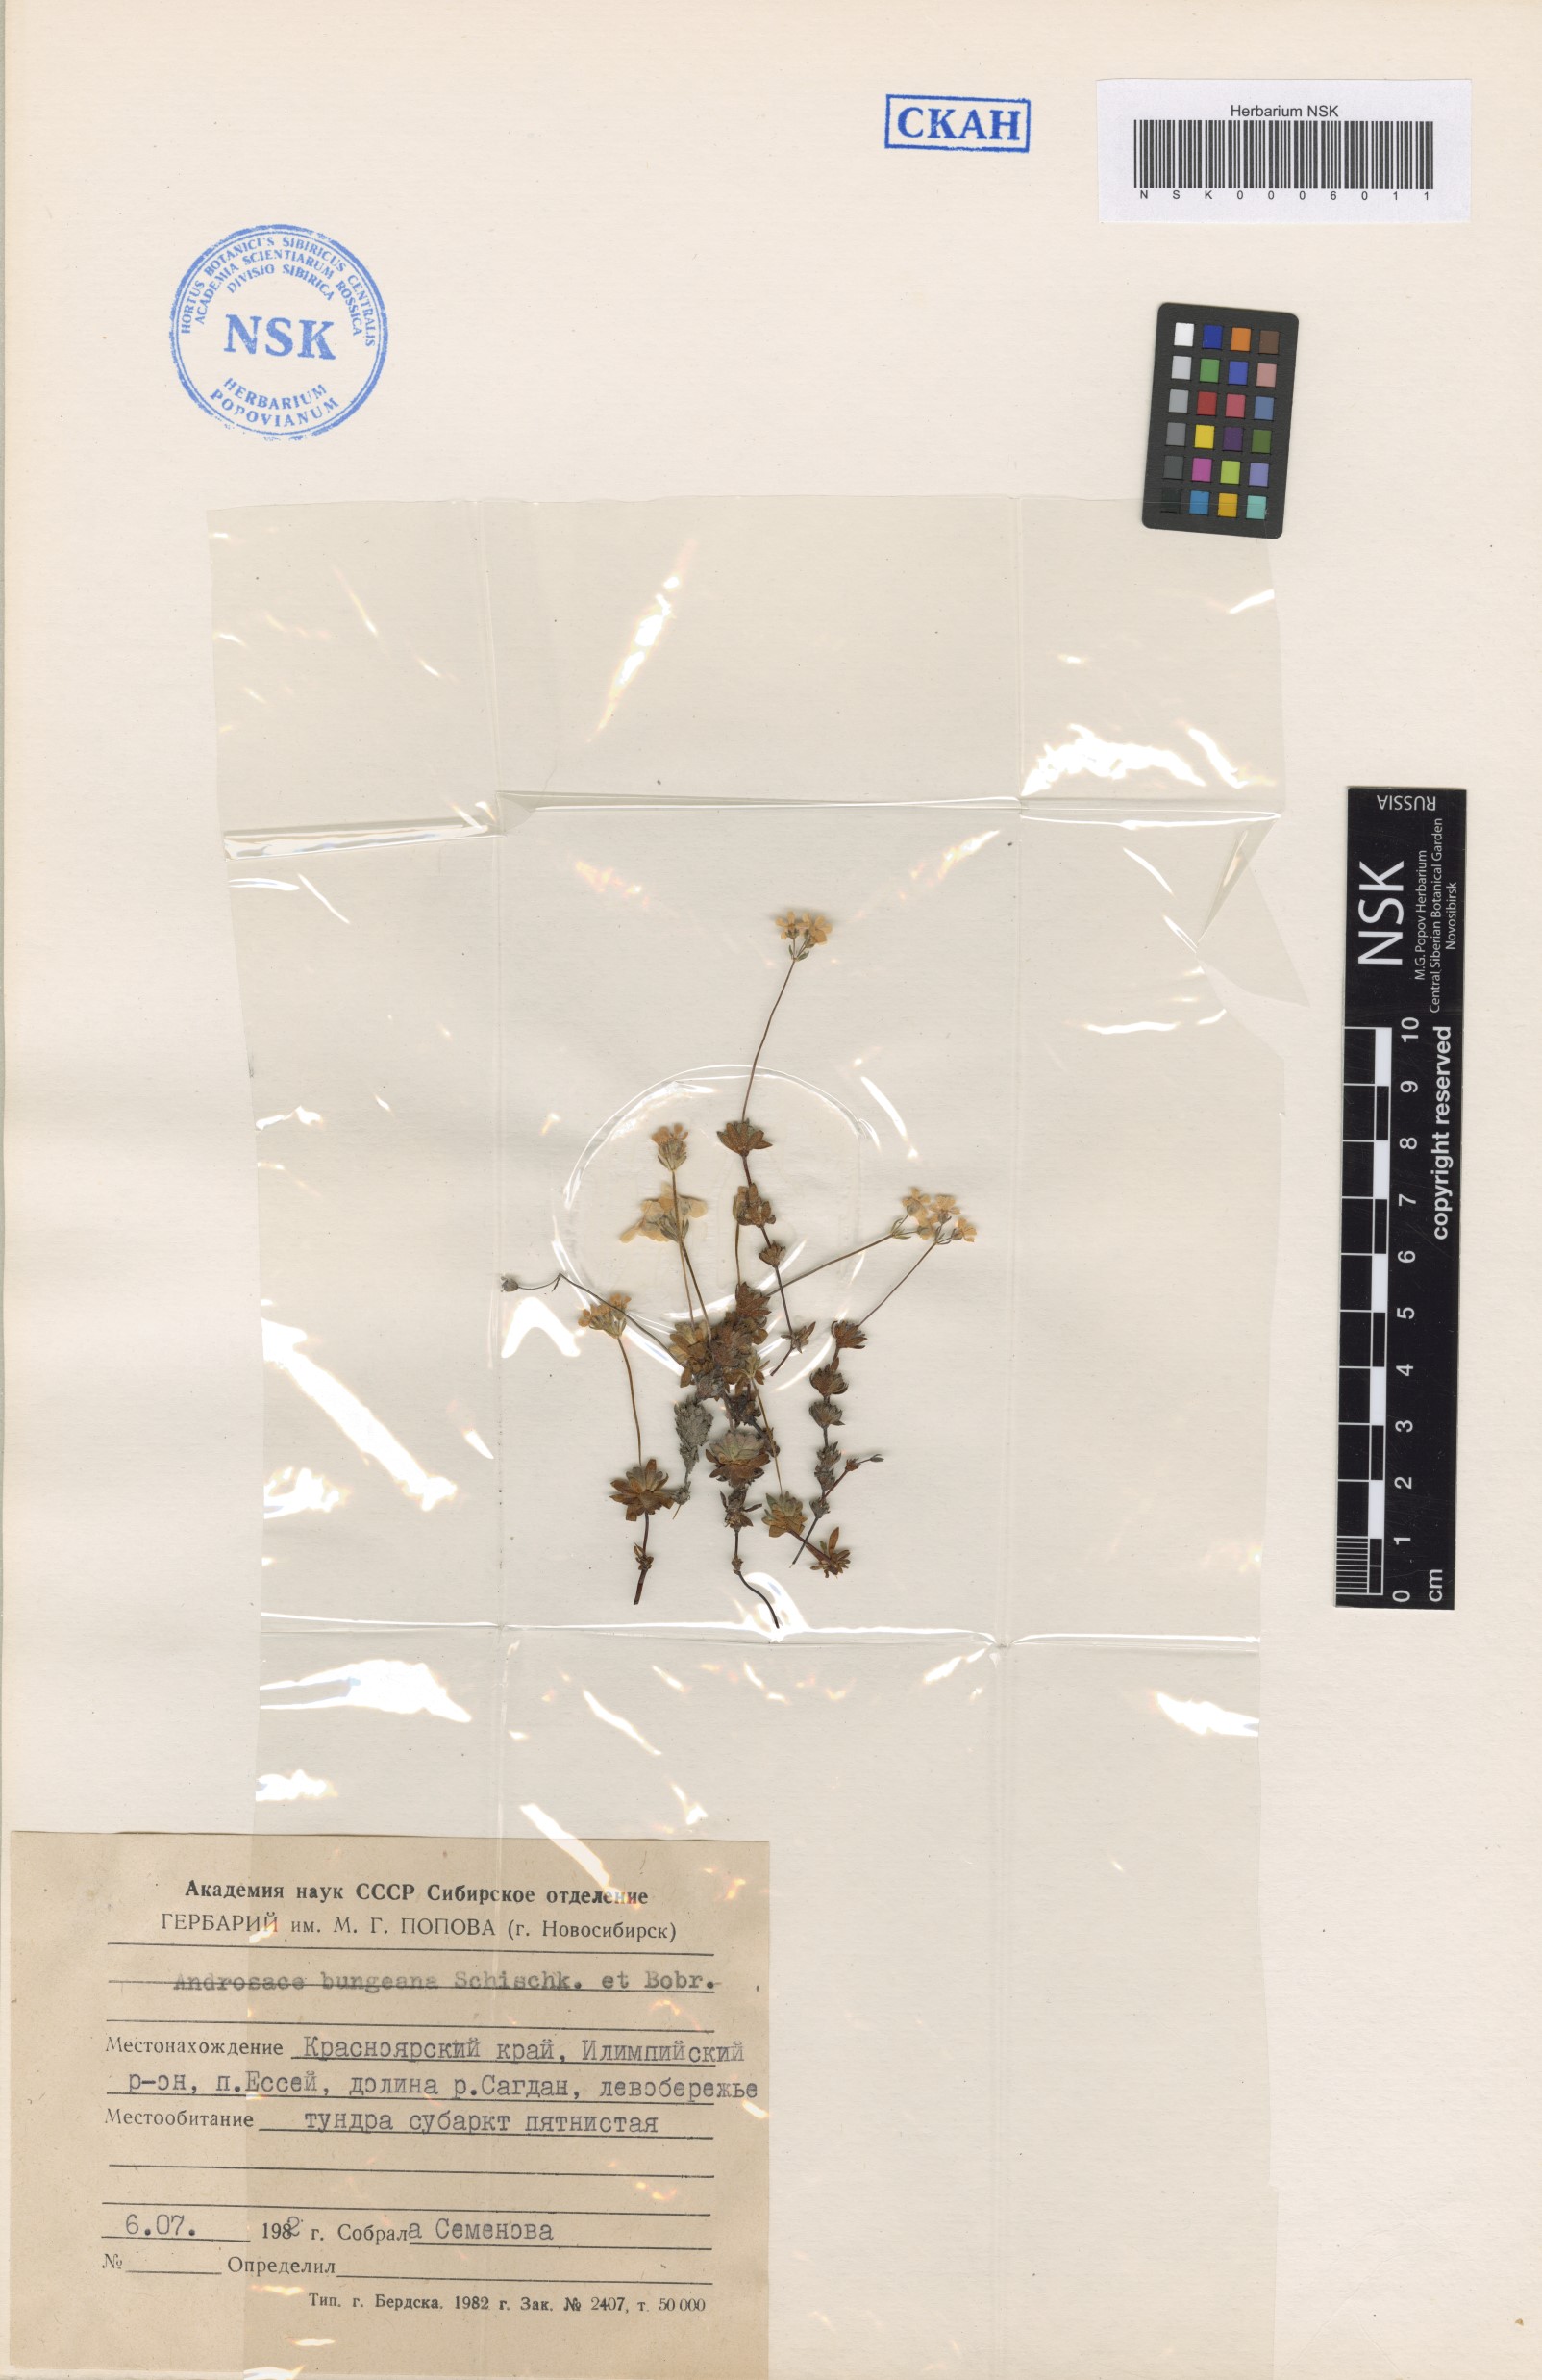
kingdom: Plantae
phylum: Tracheophyta
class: Magnoliopsida
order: Ericales
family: Primulaceae
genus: Androsace
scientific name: Androsace bungeana
